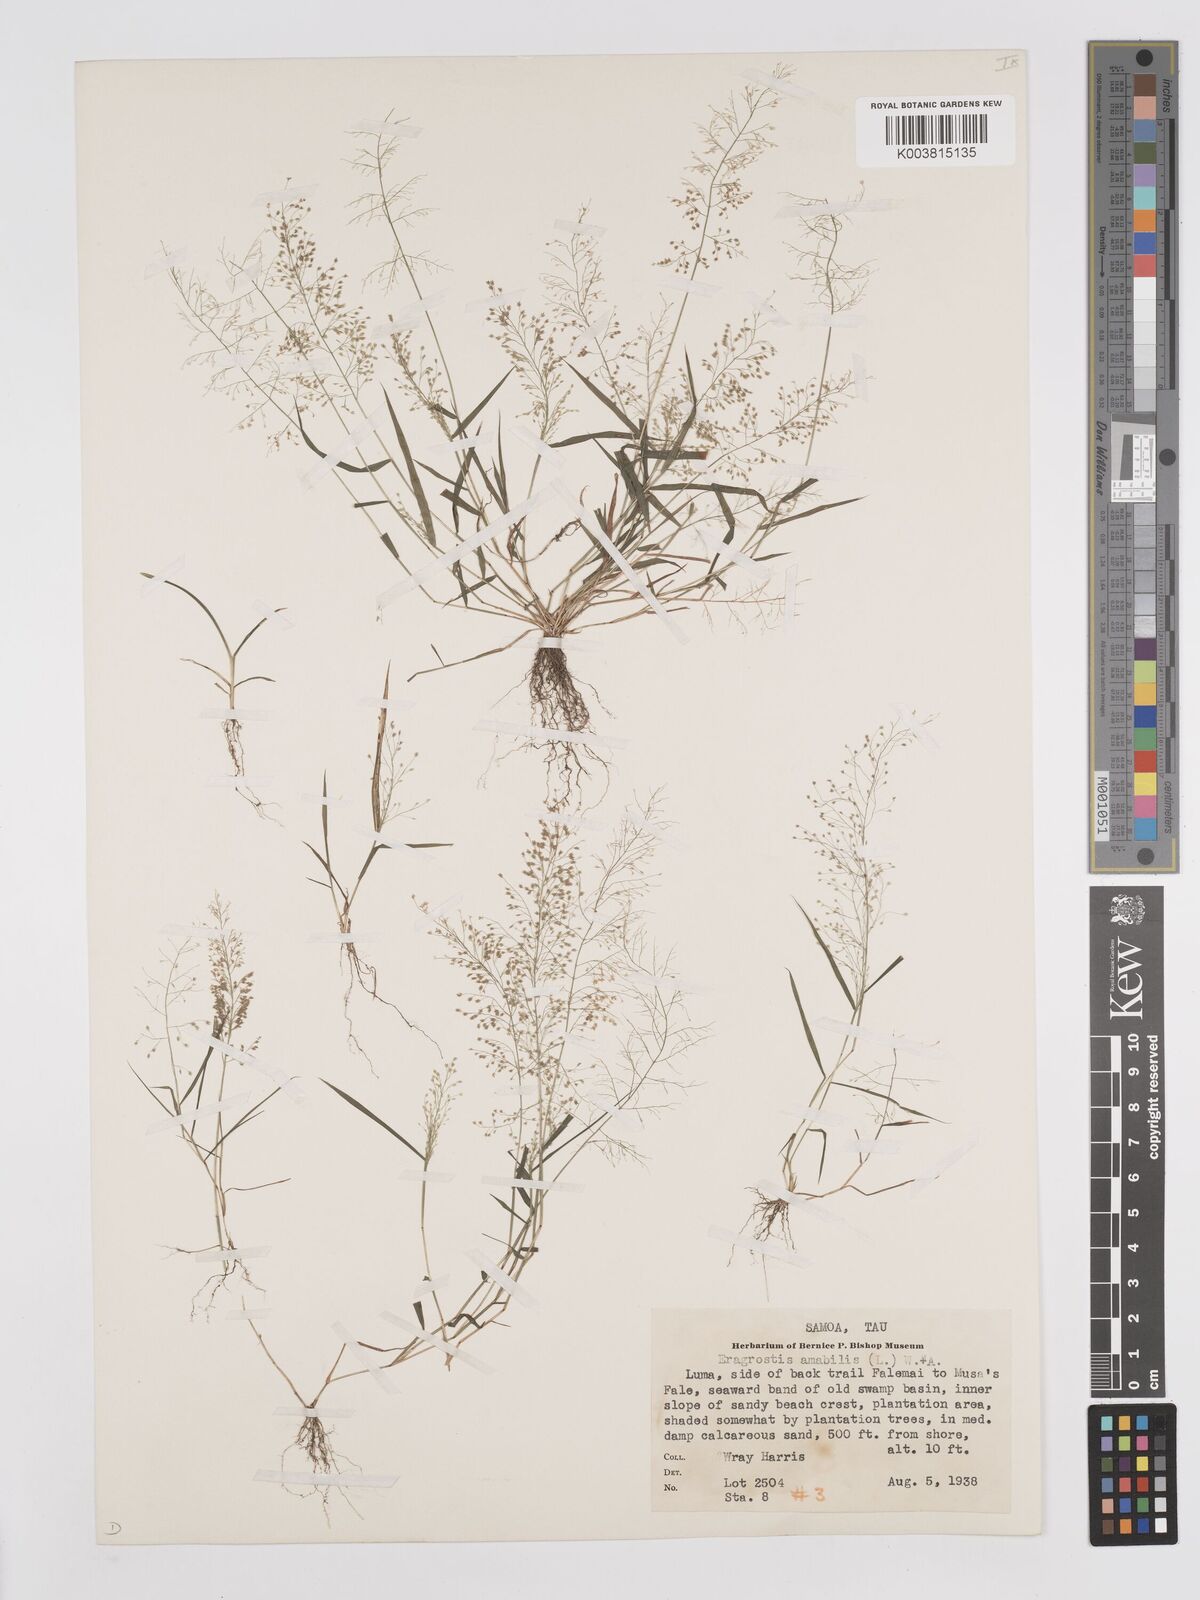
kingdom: Plantae
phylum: Tracheophyta
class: Liliopsida
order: Poales
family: Poaceae
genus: Eragrostis
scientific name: Eragrostis tenella
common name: Japanese lovegrass
